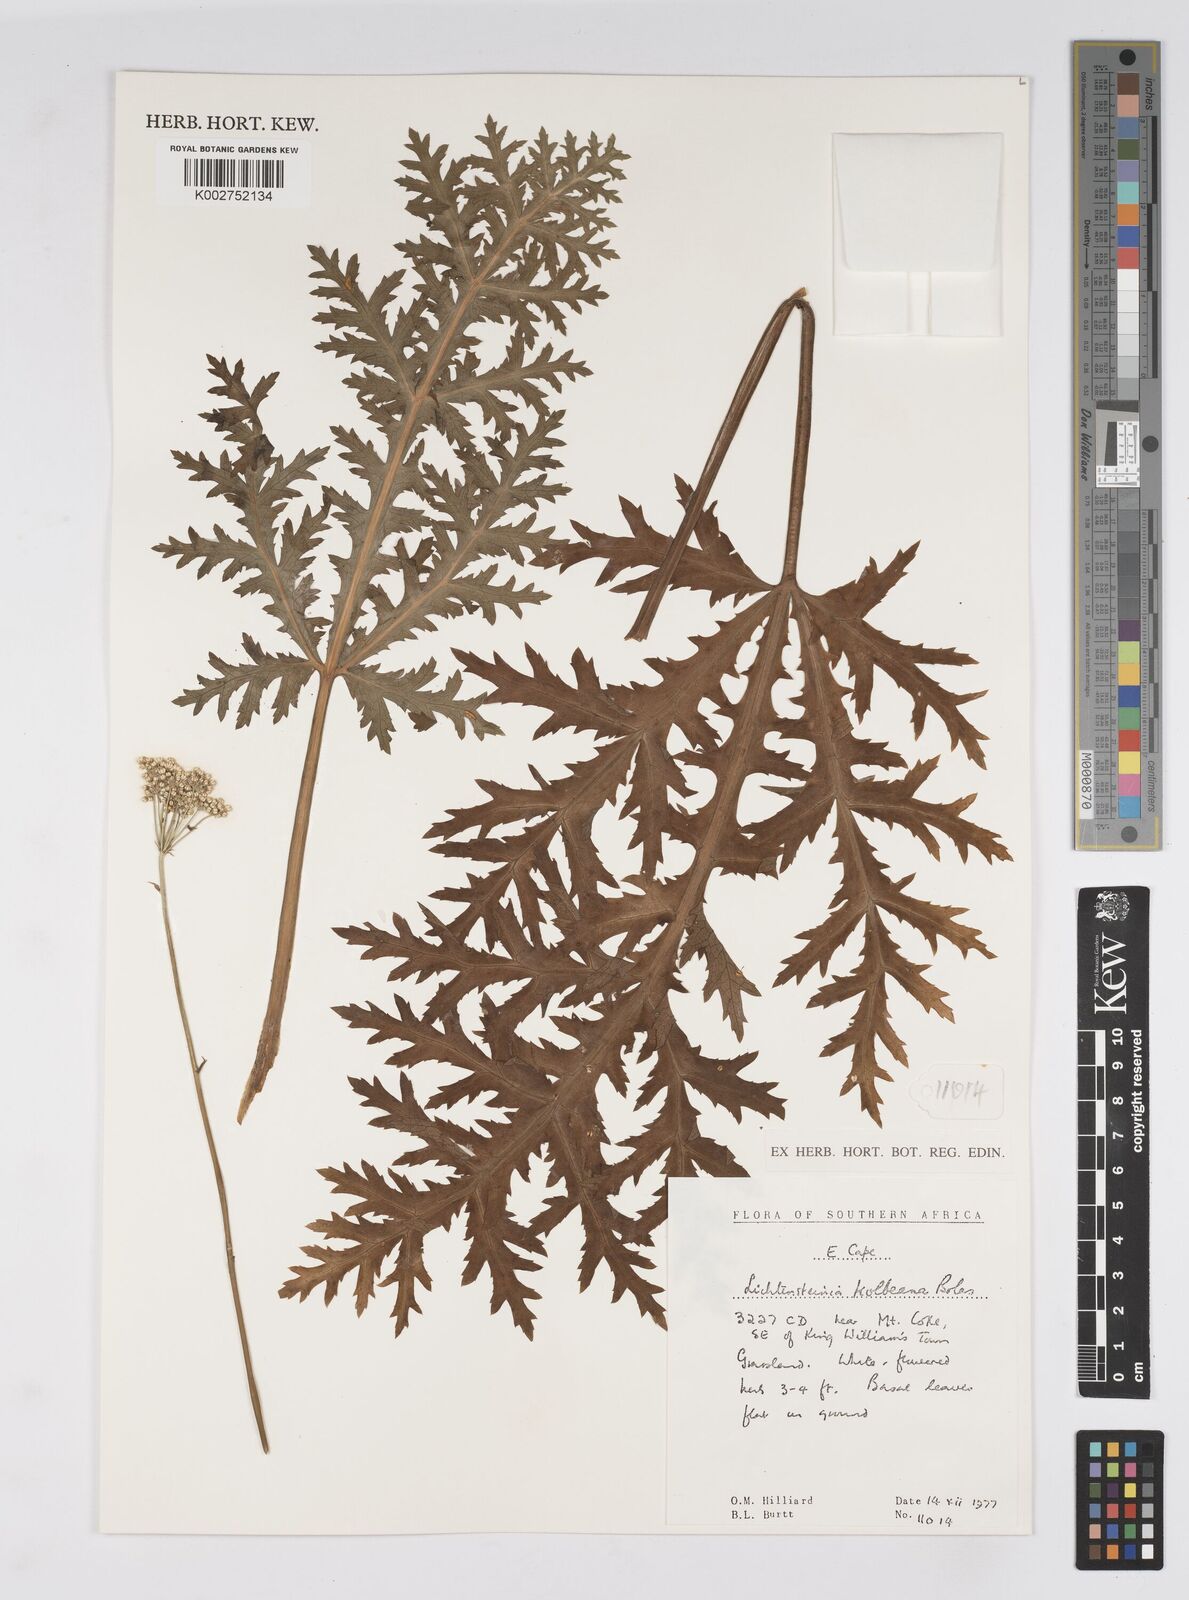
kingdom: Plantae
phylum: Tracheophyta
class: Magnoliopsida
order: Apiales
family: Apiaceae
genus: Lichtensteinia
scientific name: Lichtensteinia interrupta
